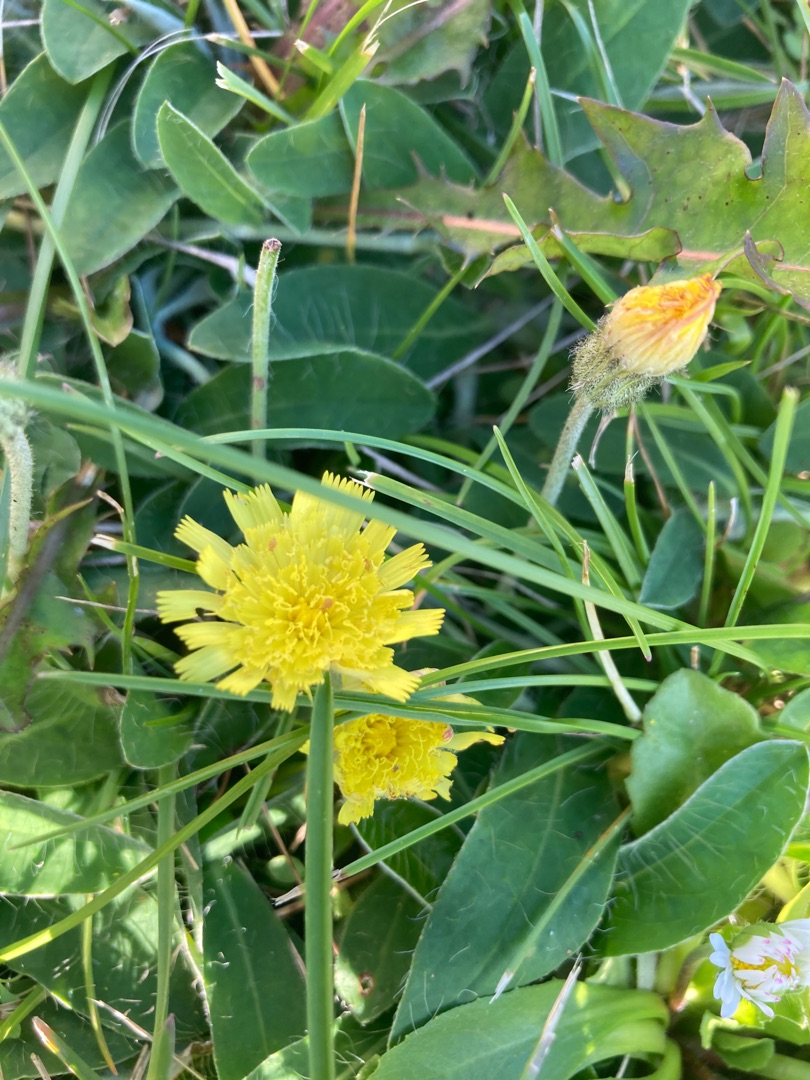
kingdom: Plantae
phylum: Tracheophyta
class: Magnoliopsida
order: Asterales
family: Asteraceae
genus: Pilosella
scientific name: Pilosella officinarum
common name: Håret høgeurt
